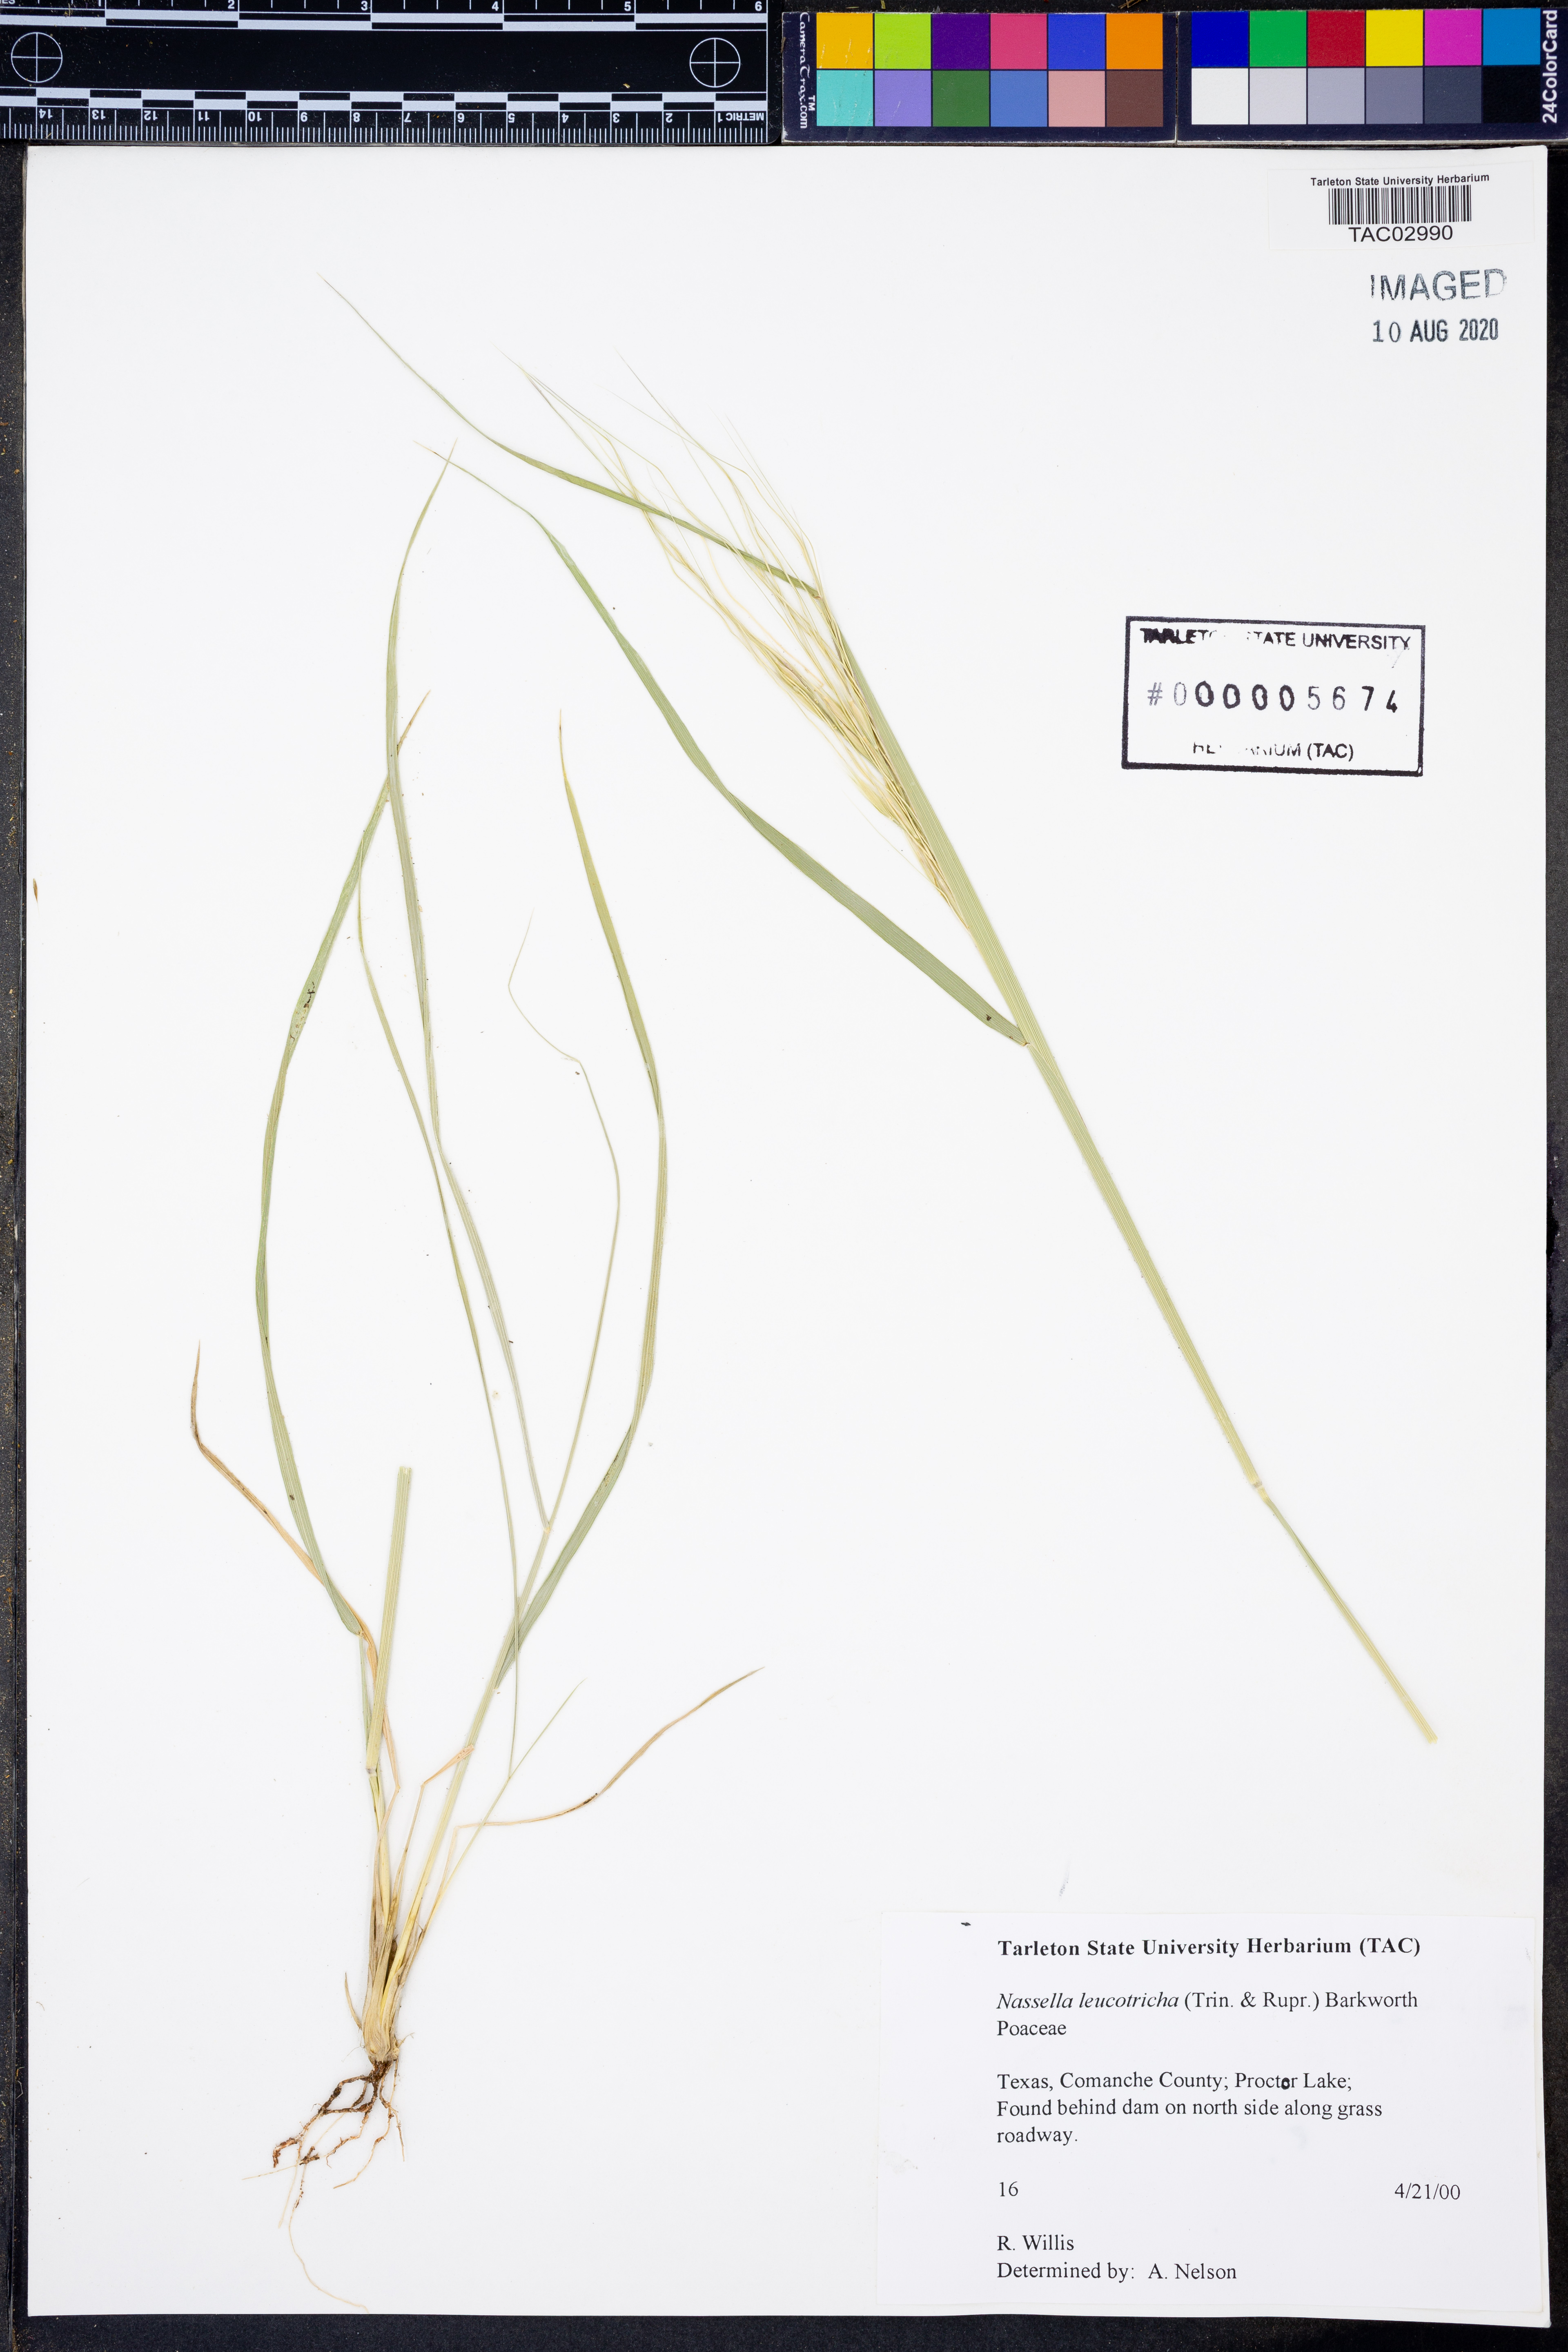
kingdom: Plantae
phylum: Tracheophyta
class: Liliopsida
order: Poales
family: Poaceae
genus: Nassella
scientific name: Nassella leucotricha
